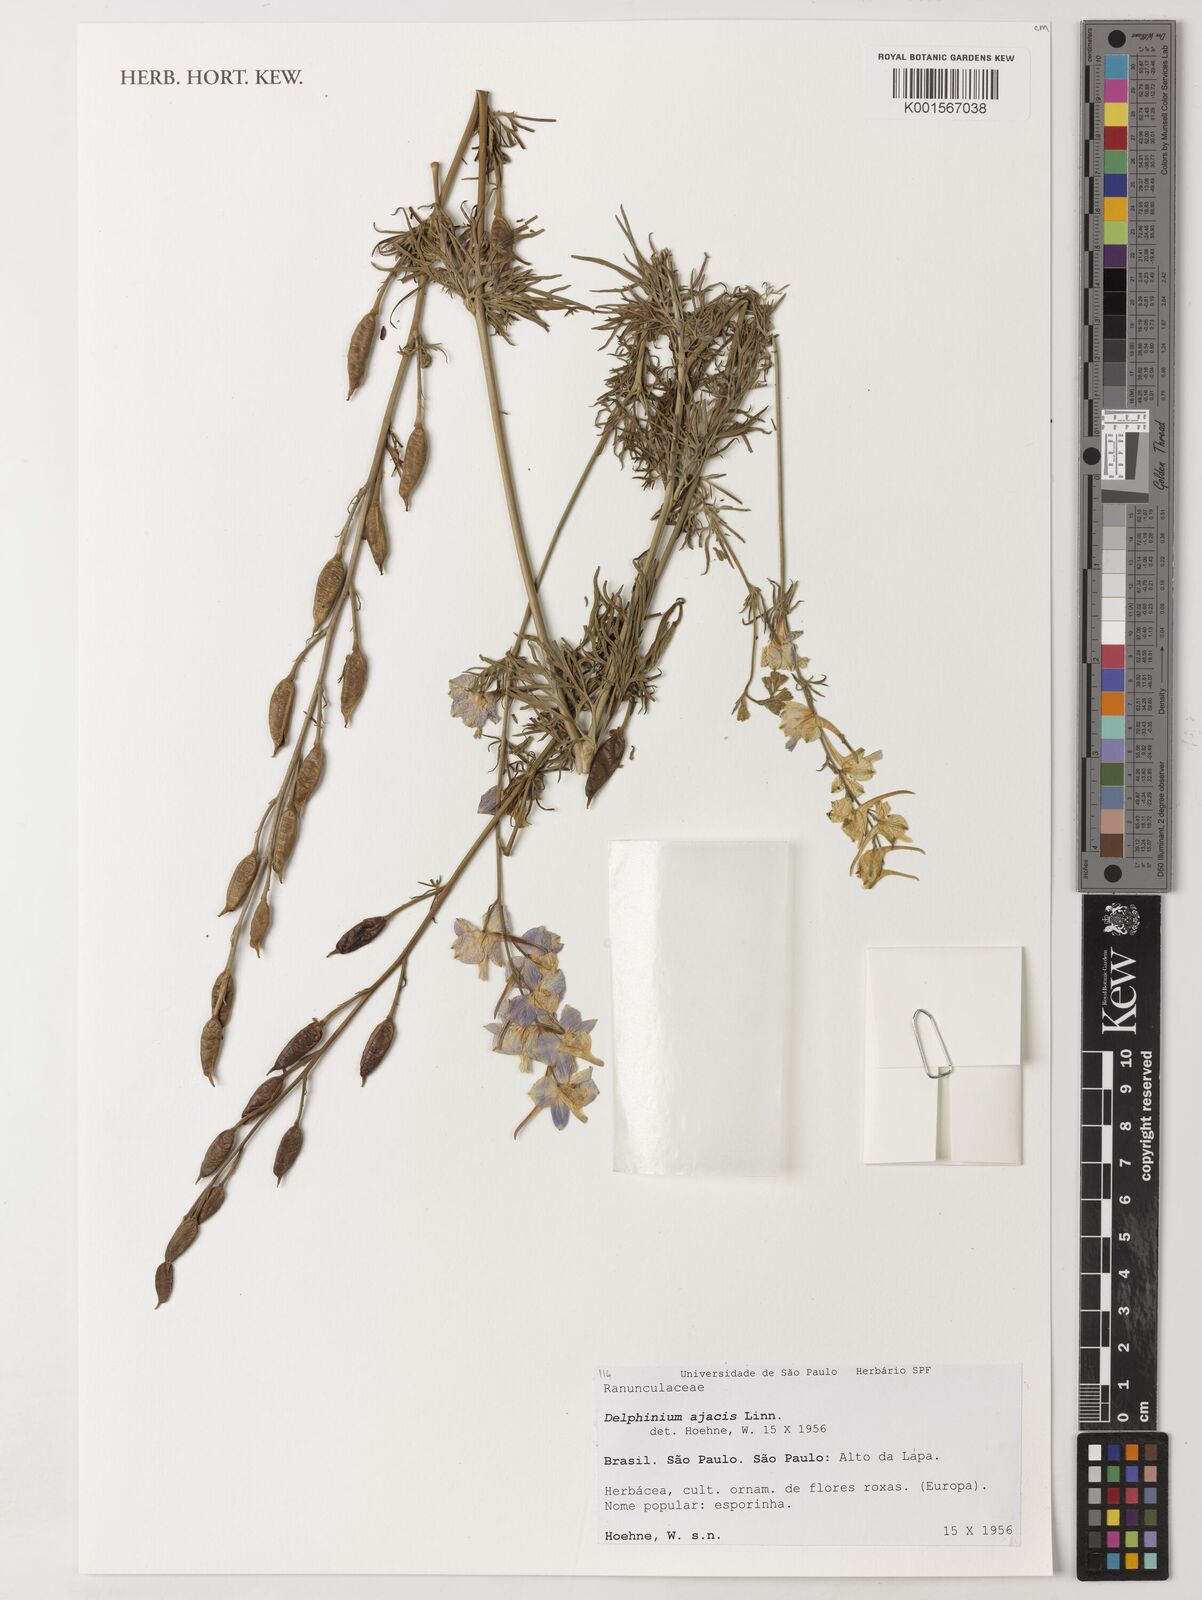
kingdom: Plantae
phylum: Tracheophyta
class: Magnoliopsida
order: Ranunculales
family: Ranunculaceae
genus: Delphinium
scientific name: Delphinium ajacis
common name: Doubtful knight's-spur
